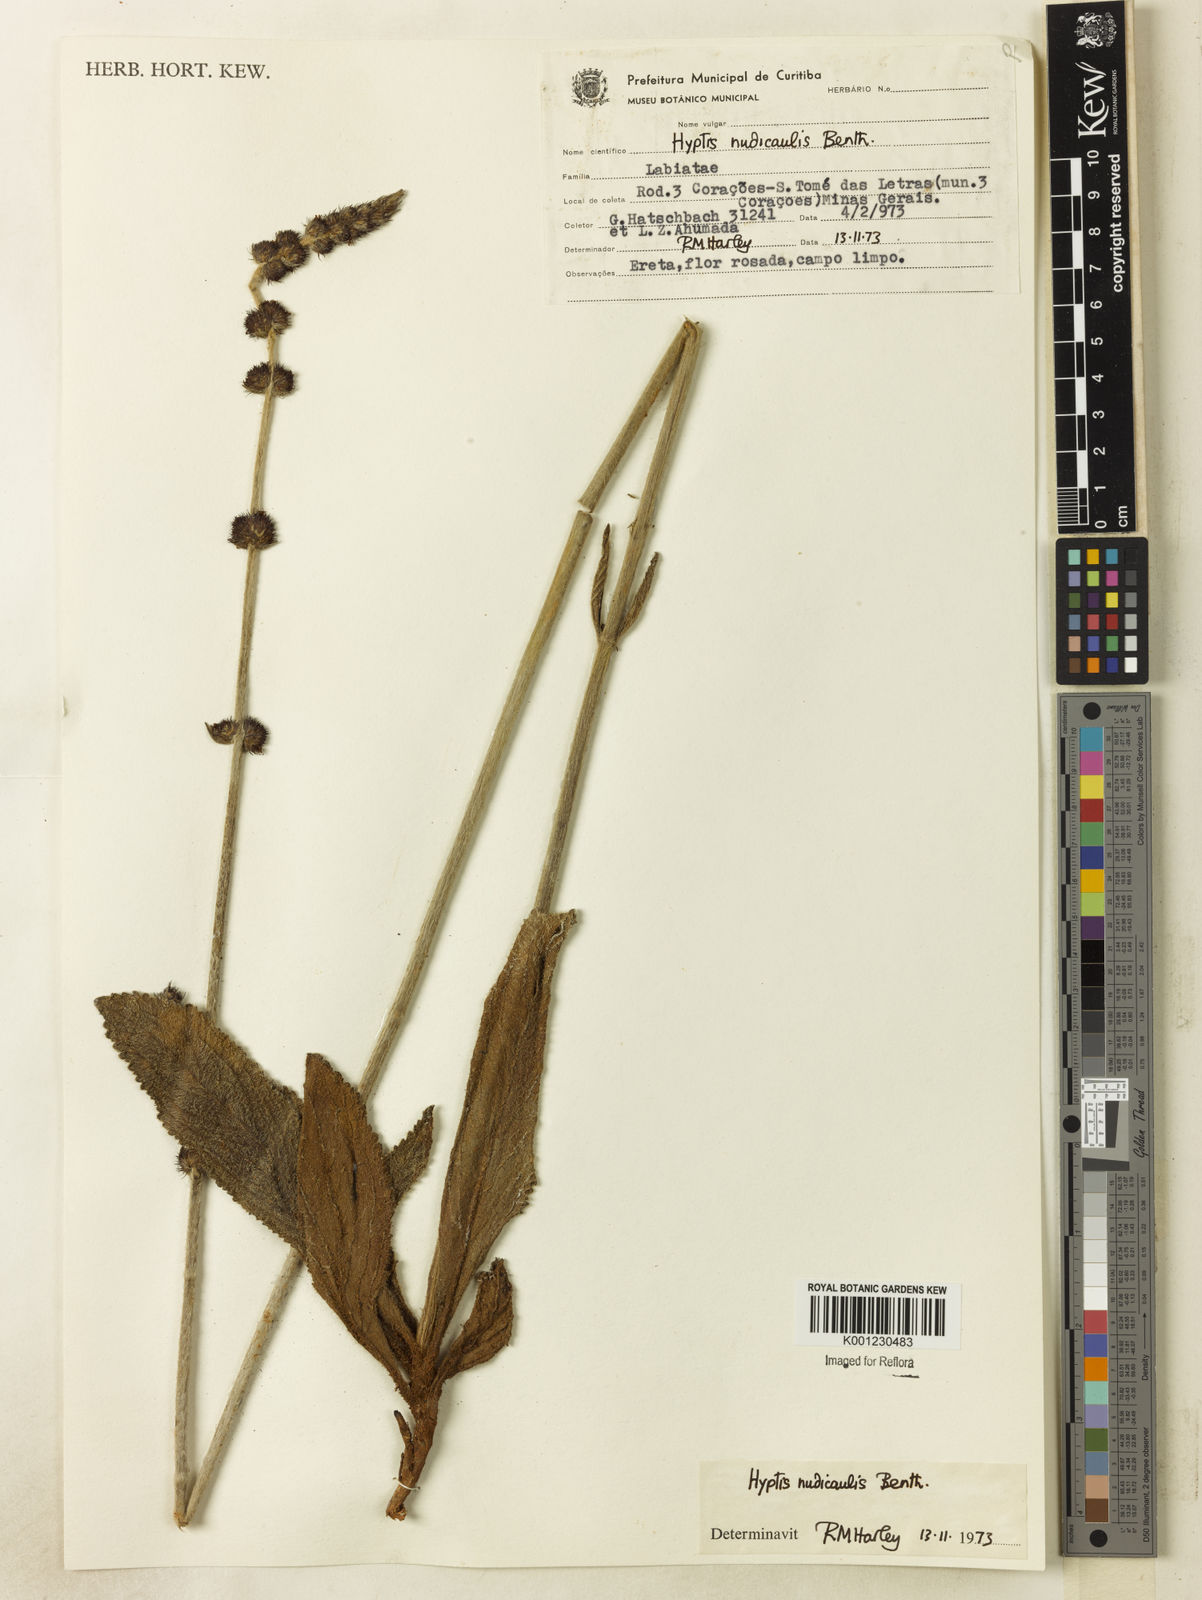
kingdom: Plantae
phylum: Tracheophyta
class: Magnoliopsida
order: Lamiales
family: Lamiaceae
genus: Hyptis
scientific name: Hyptis nudicaulis
